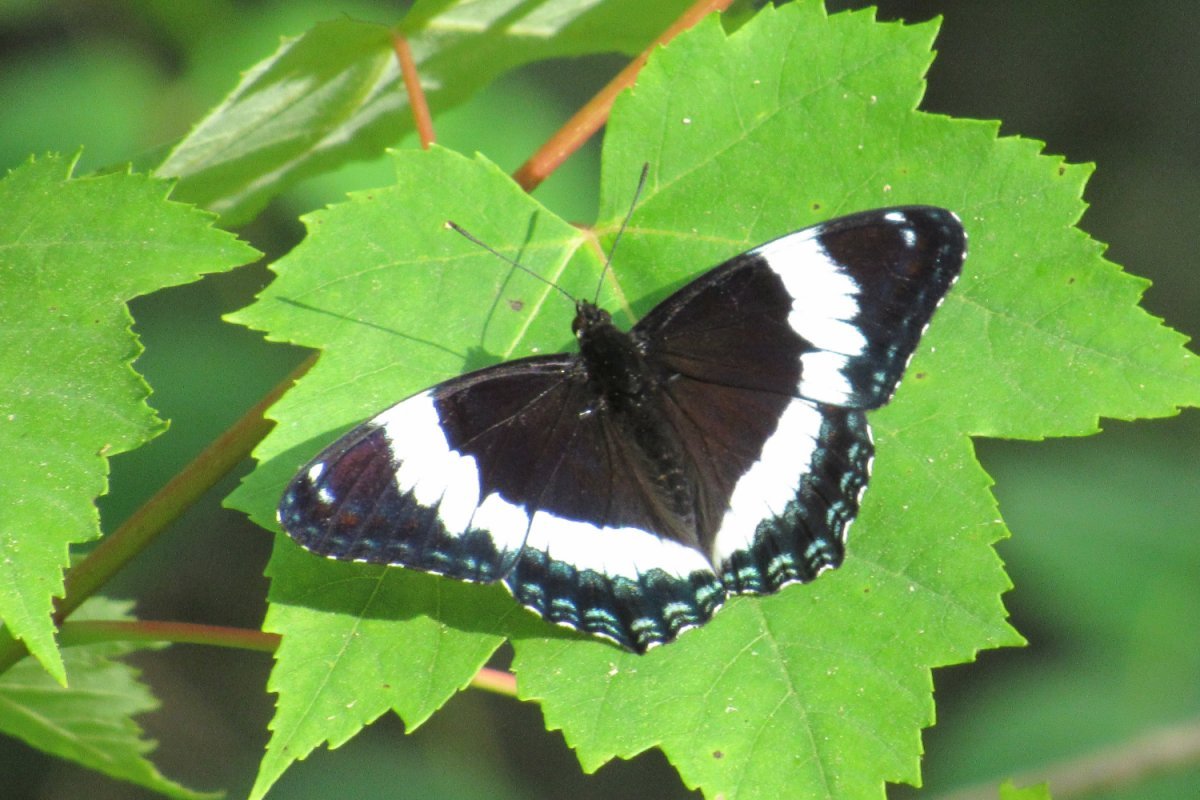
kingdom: Animalia
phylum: Arthropoda
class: Insecta
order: Lepidoptera
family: Nymphalidae
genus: Limenitis
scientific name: Limenitis arthemis
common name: Red-spotted Admiral
